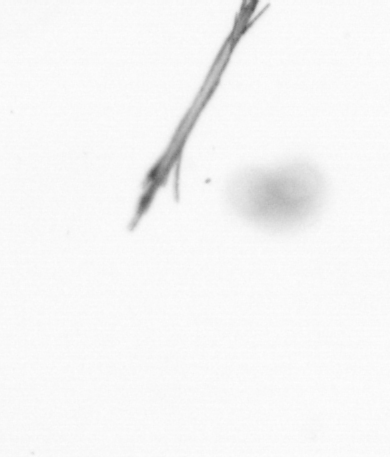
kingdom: Bacteria
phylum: Cyanobacteria
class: Cyanobacteriia
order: Cyanobacteriales
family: Microcoleaceae
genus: Trichodesmium
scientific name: Trichodesmium
